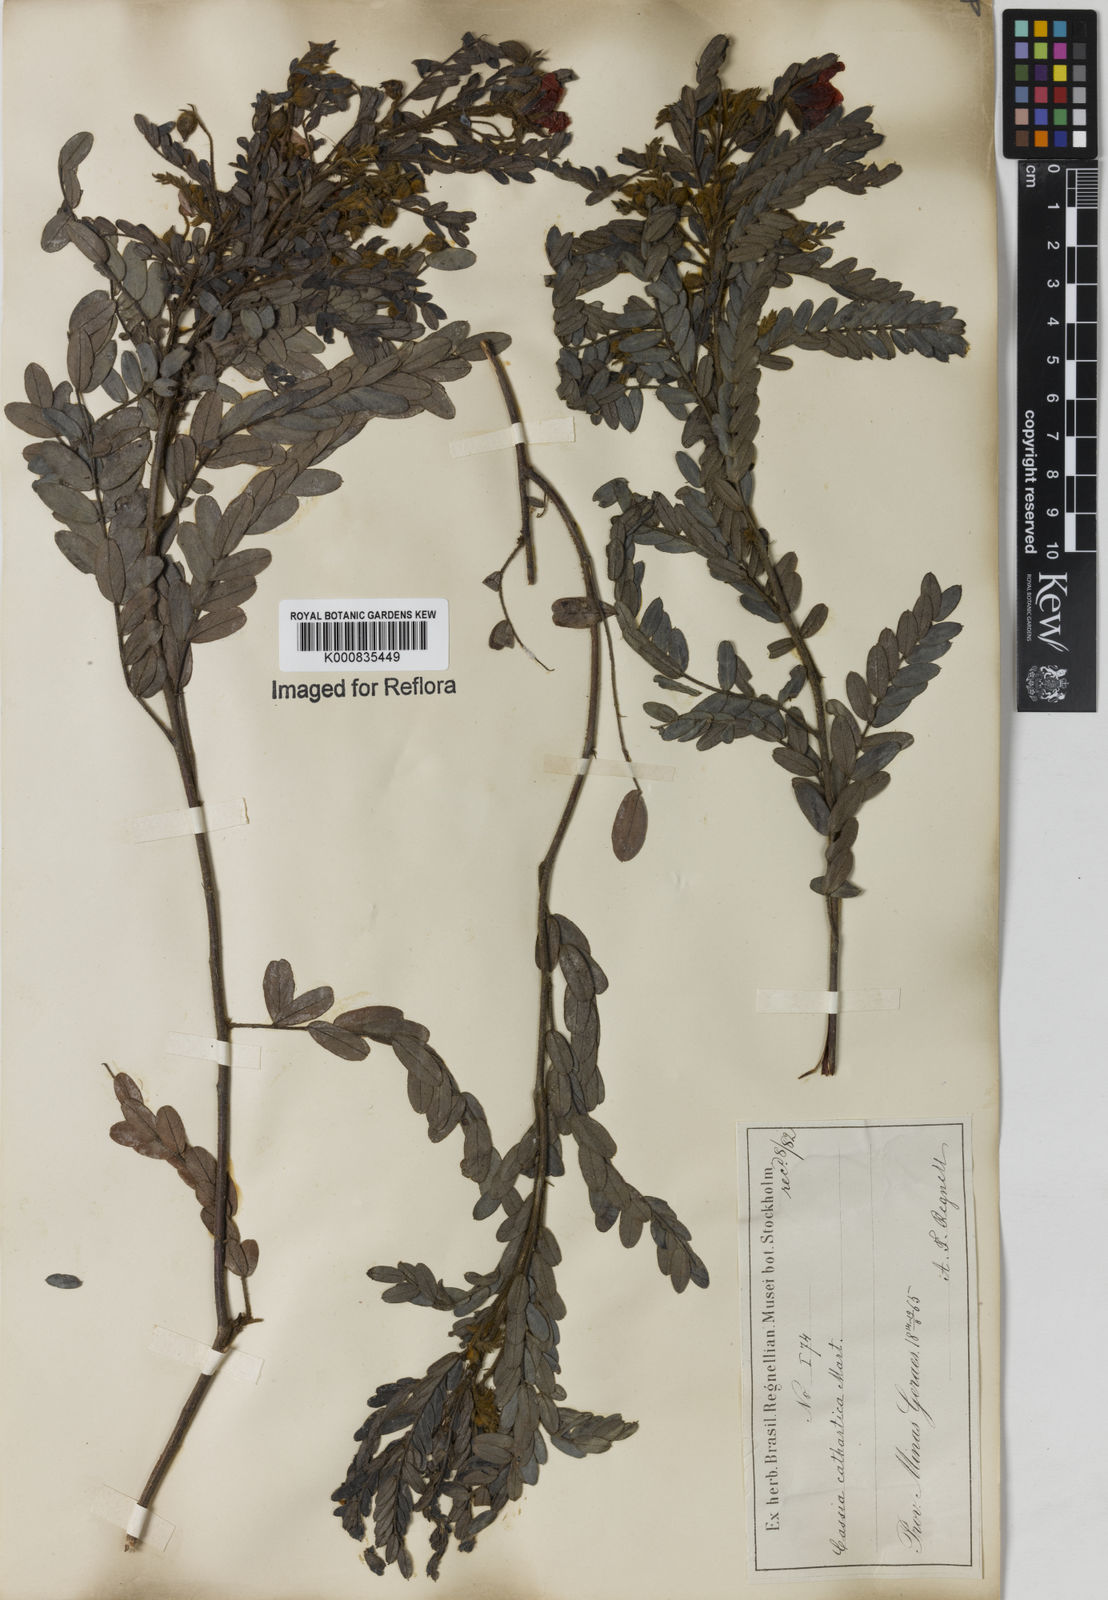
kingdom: Plantae
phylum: Tracheophyta
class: Magnoliopsida
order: Fabales
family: Fabaceae
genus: Chamaecrista
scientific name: Chamaecrista cathartica
